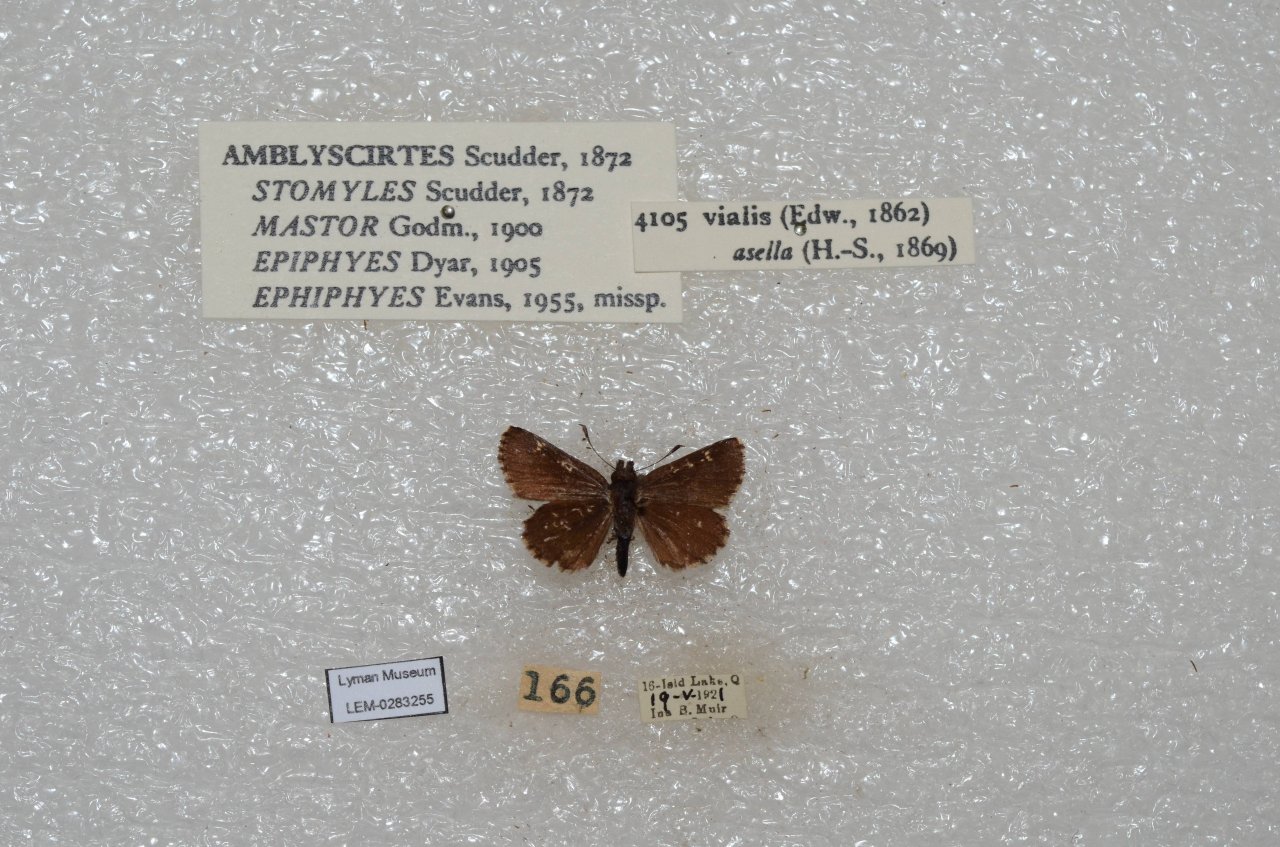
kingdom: Animalia
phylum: Arthropoda
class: Insecta
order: Lepidoptera
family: Hesperiidae
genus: Mastor
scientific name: Mastor vialis
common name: Common Roadside-Skipper
